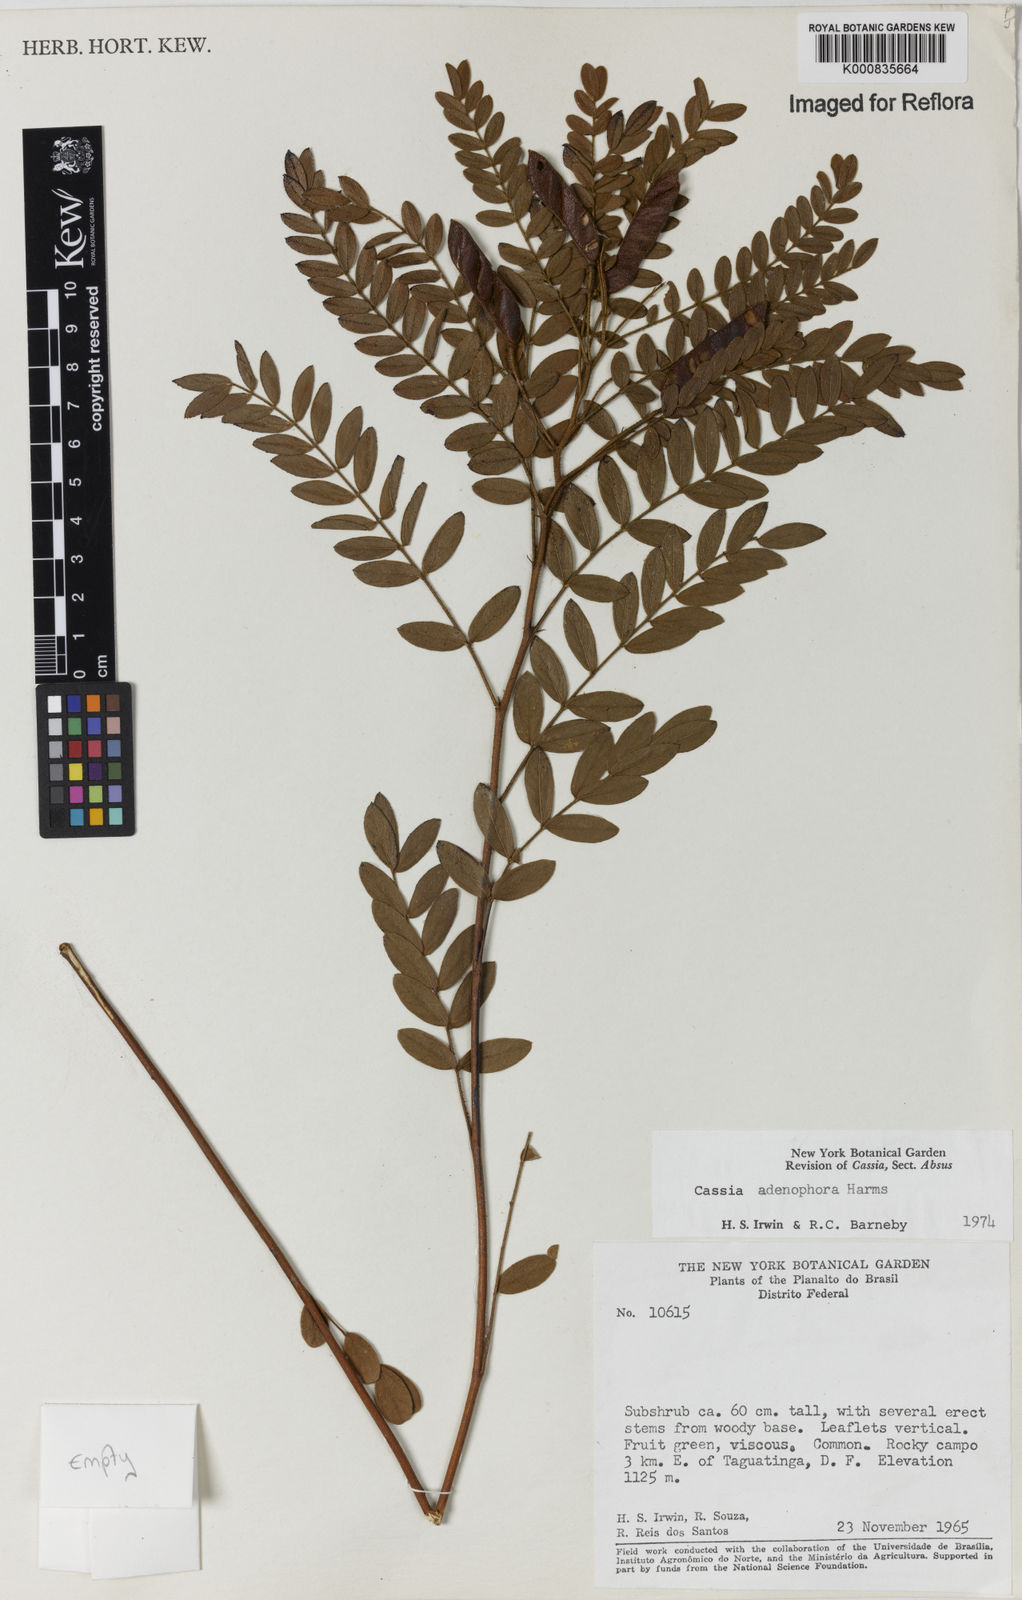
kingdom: Plantae
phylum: Tracheophyta
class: Magnoliopsida
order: Fabales
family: Fabaceae
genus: Chamaecrista
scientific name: Chamaecrista adenophora
